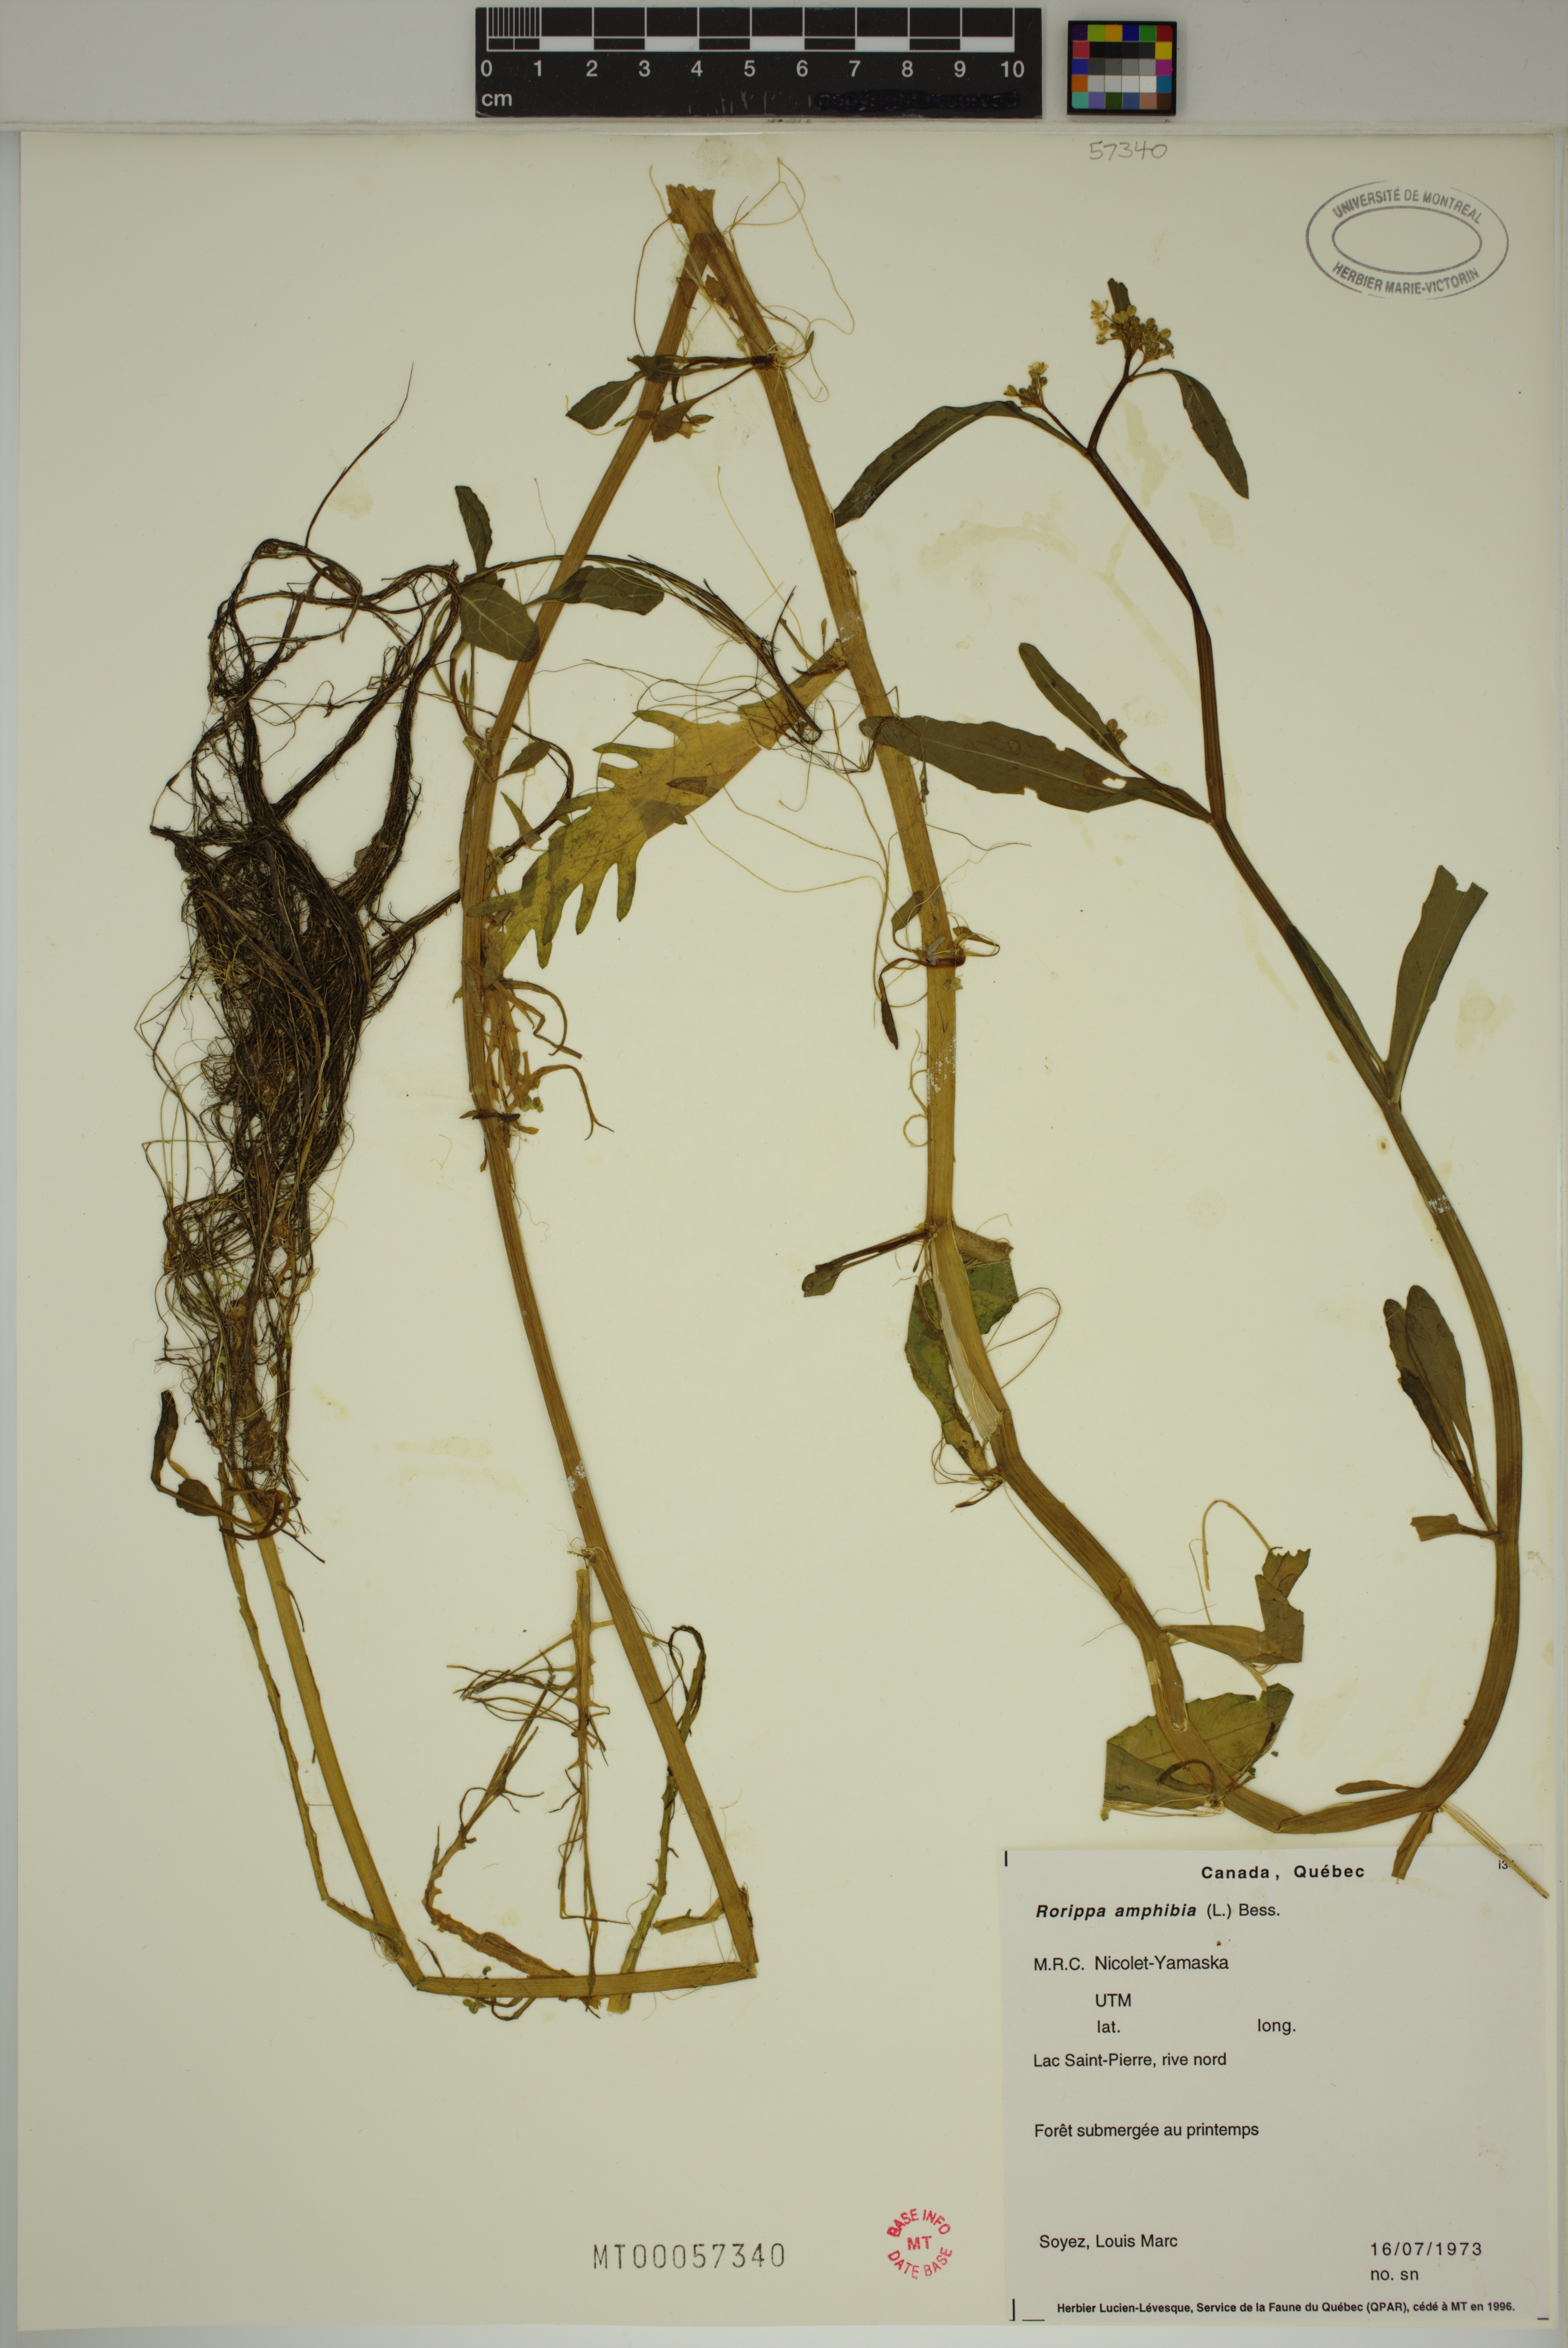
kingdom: Plantae
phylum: Tracheophyta
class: Magnoliopsida
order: Brassicales
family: Brassicaceae
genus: Rorippa
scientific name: Rorippa amphibia
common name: Great yellow-cress
